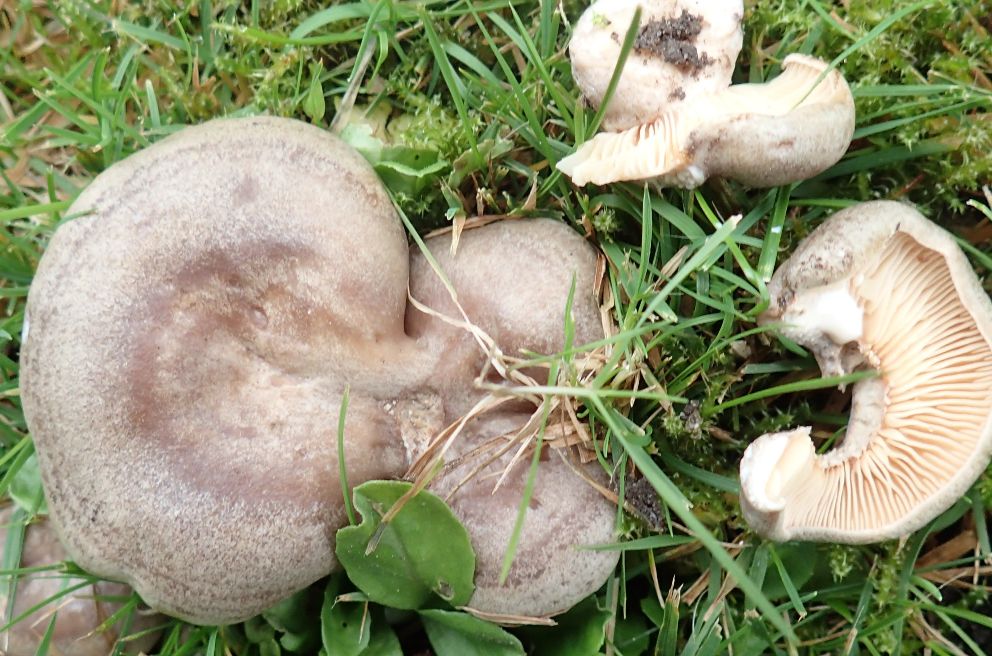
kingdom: Fungi
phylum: Basidiomycota
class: Agaricomycetes
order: Russulales
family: Russulaceae
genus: Lactarius
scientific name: Lactarius pyrogalus
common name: hassel-mælkehat
